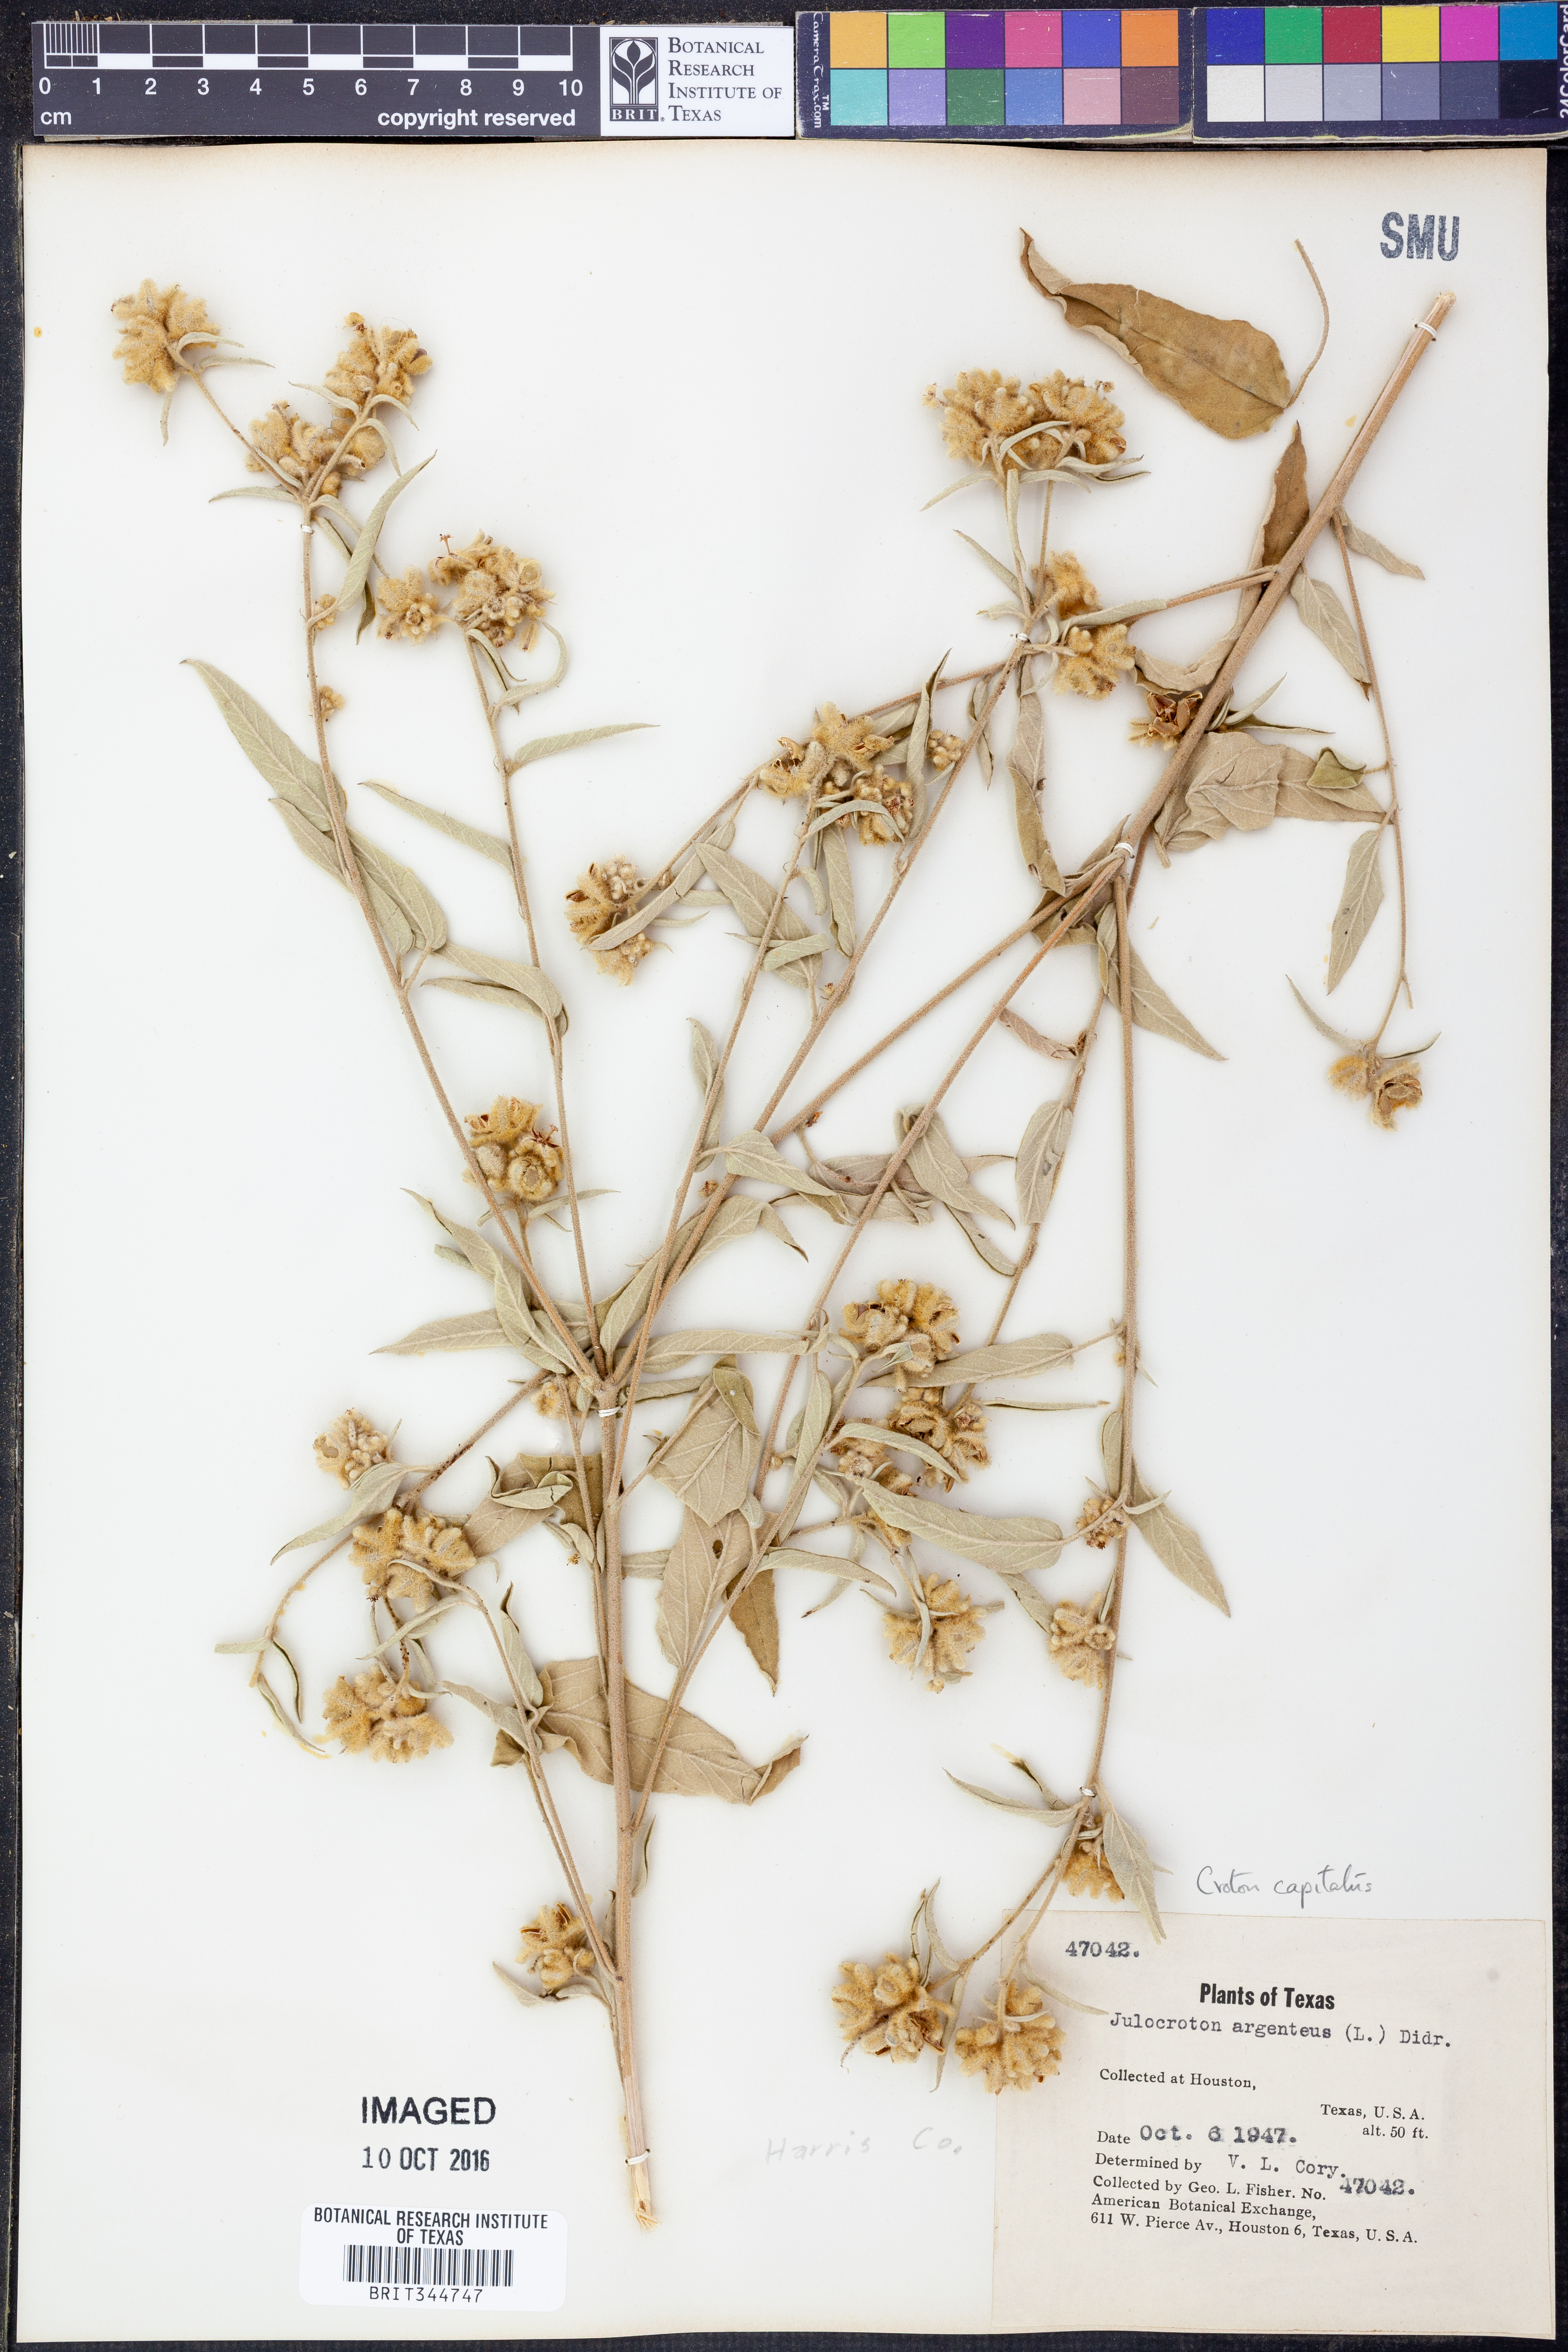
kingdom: Plantae
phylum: Tracheophyta
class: Magnoliopsida
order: Malpighiales
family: Euphorbiaceae
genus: Croton
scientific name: Croton capitatus
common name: Woolly croton
